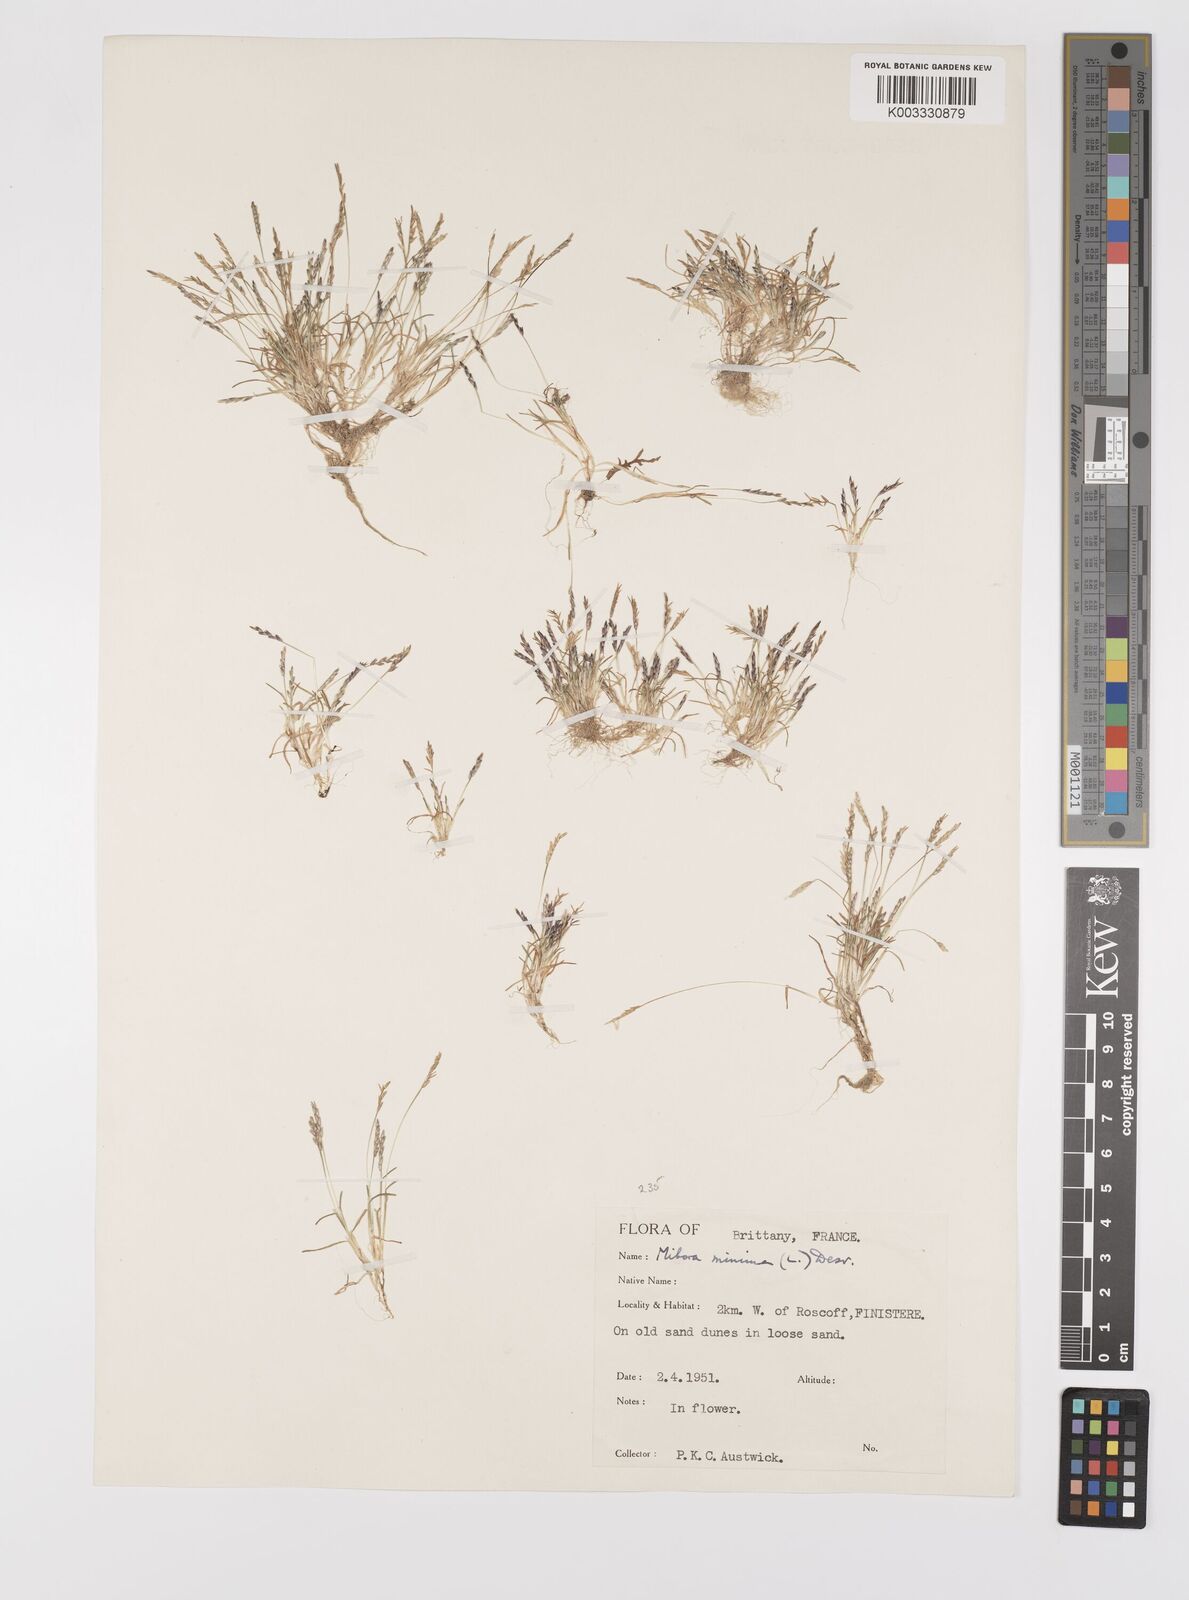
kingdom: Plantae
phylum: Tracheophyta
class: Liliopsida
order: Poales
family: Poaceae
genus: Mibora
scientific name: Mibora minima
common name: Early sand-grass
